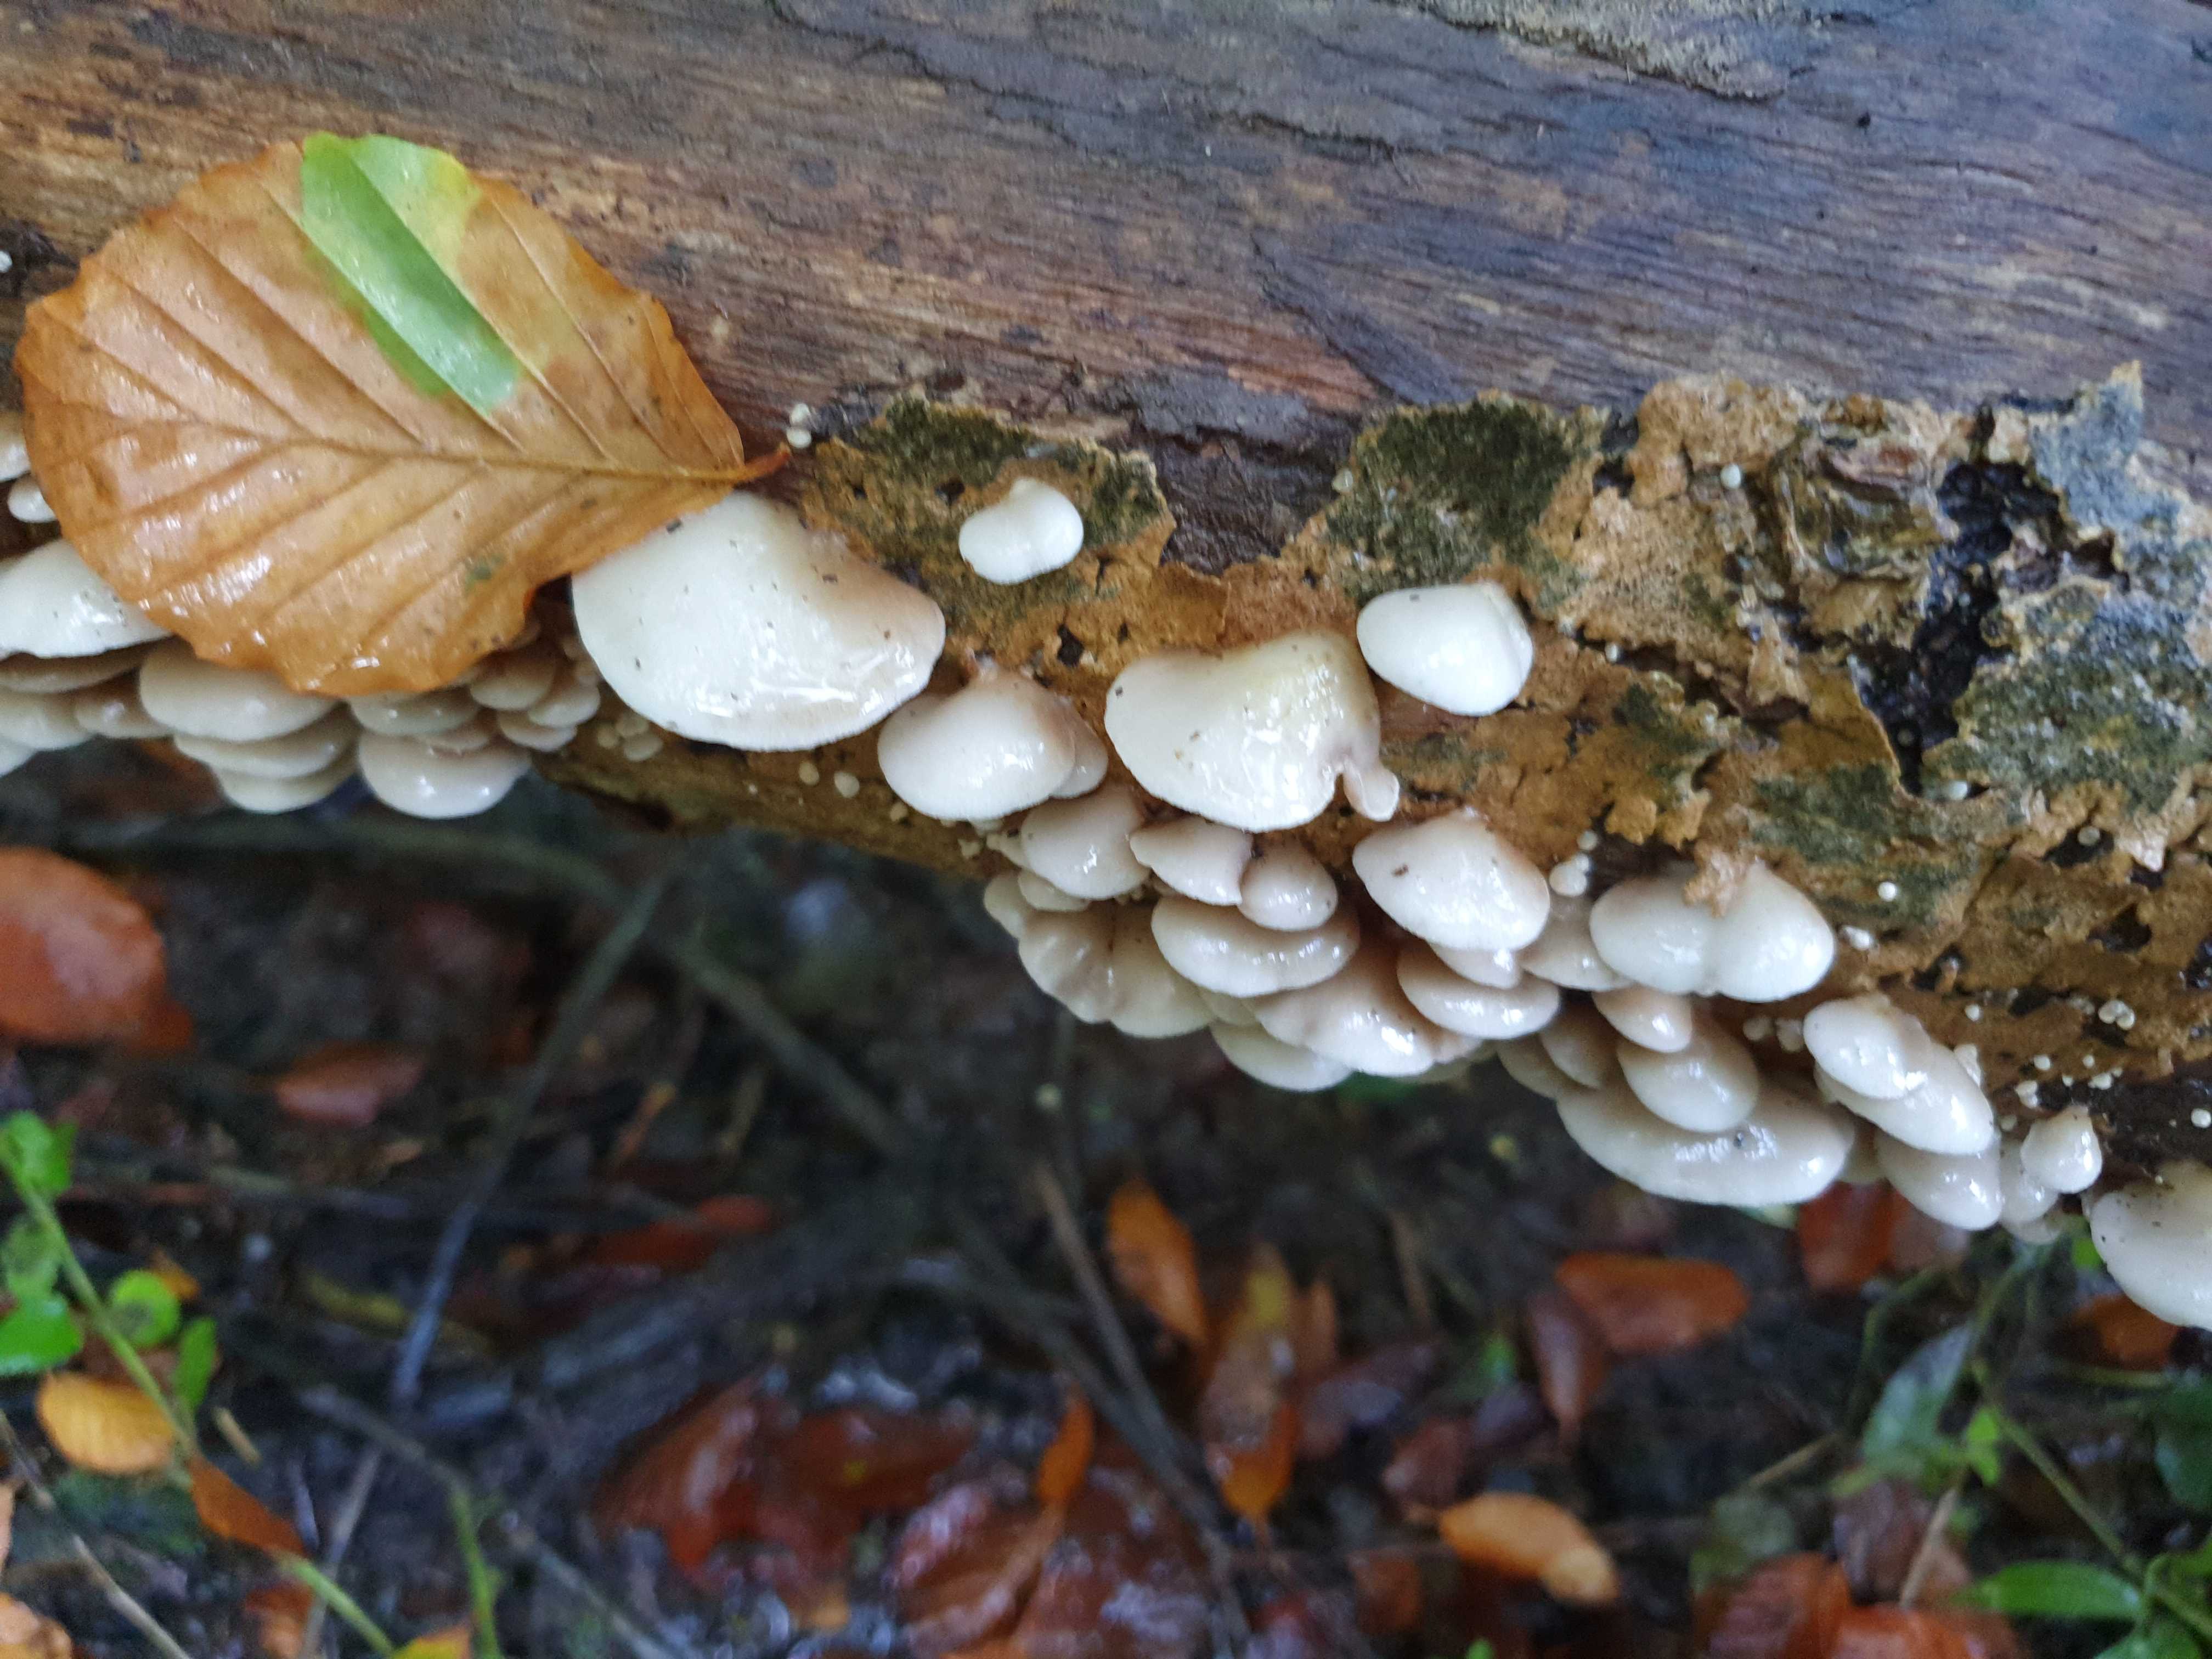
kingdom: Fungi
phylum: Basidiomycota
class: Agaricomycetes
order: Agaricales
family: Crepidotaceae
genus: Crepidotus
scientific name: Crepidotus mollis
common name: blød muslingesvamp
